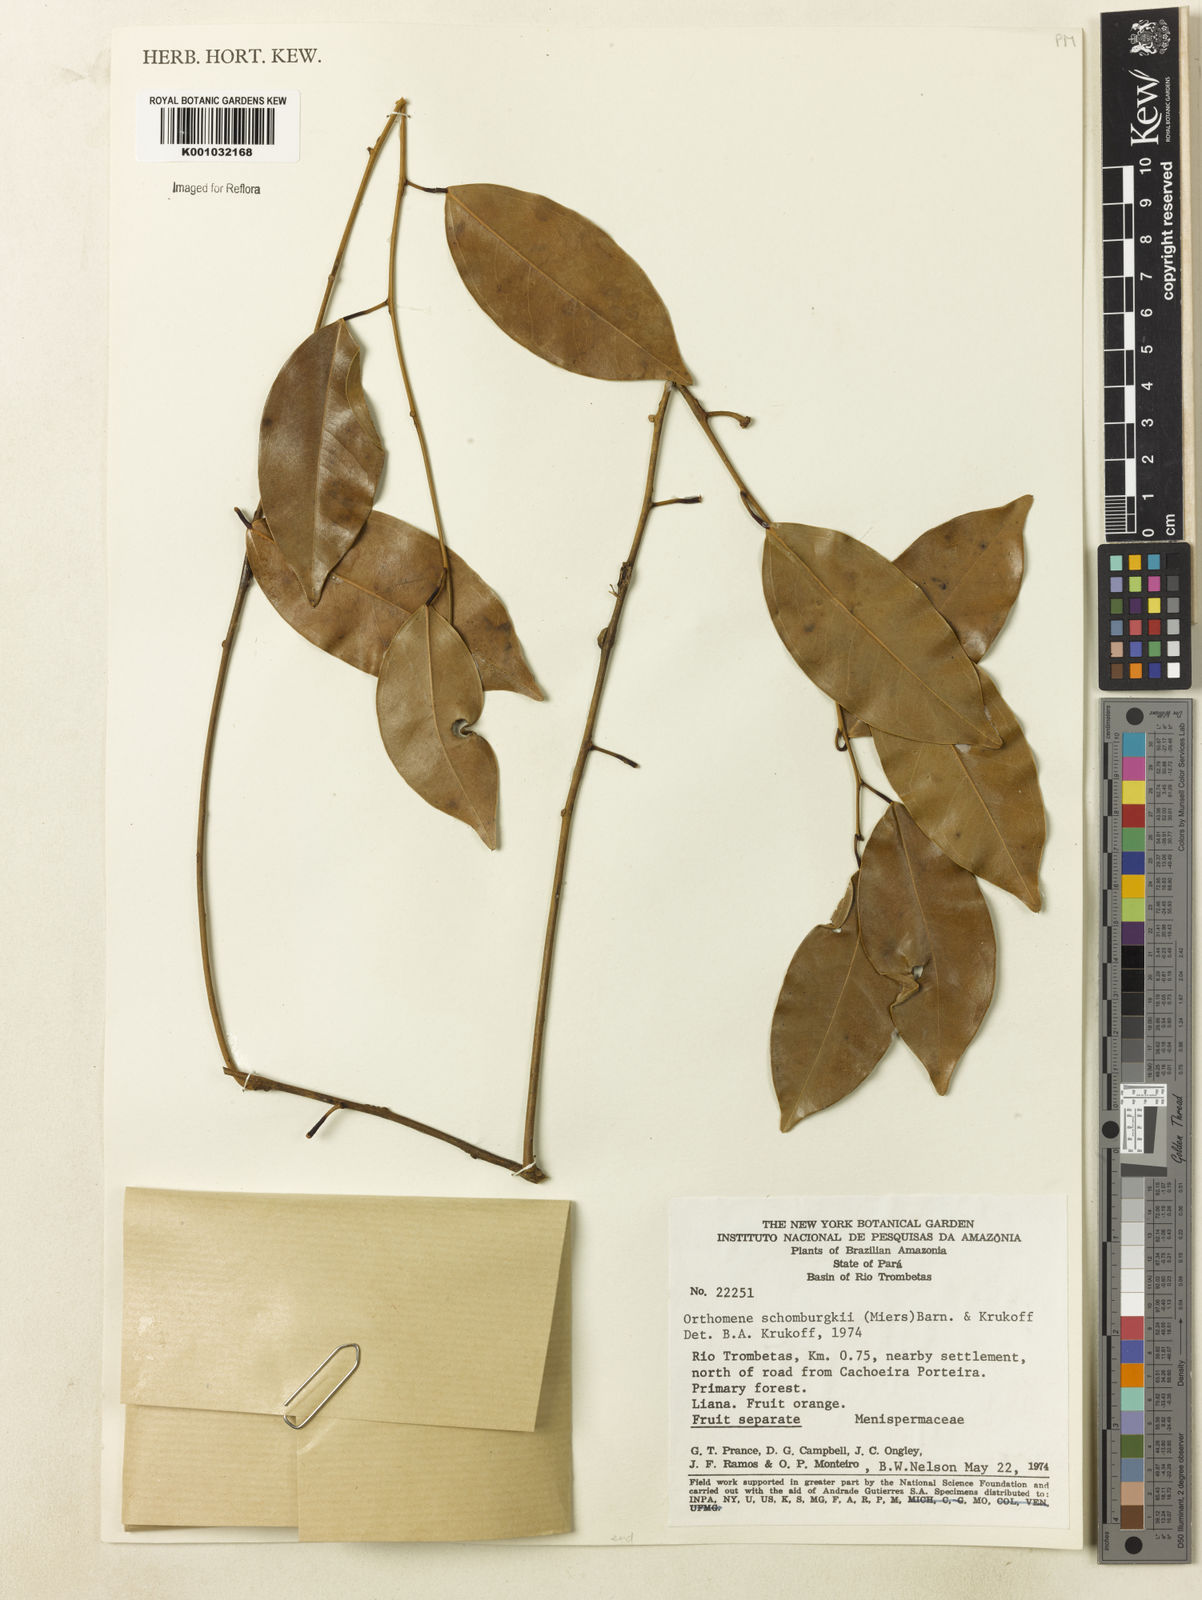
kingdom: Plantae
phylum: Tracheophyta
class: Magnoliopsida
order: Ranunculales
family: Menispermaceae
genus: Orthomene
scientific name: Orthomene schomburgkii
